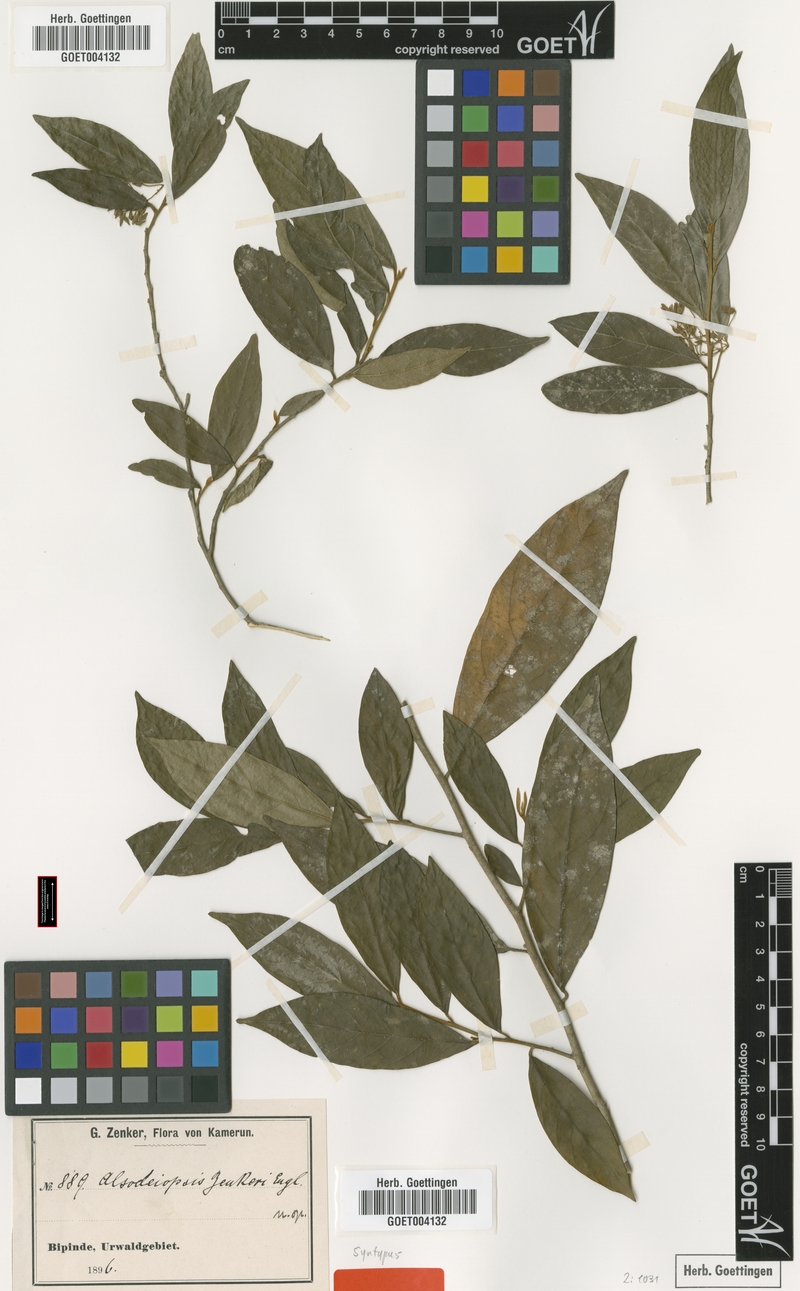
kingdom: Plantae
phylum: Tracheophyta
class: Magnoliopsida
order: Icacinales
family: Icacinaceae
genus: Alsodeiopsis
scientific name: Alsodeiopsis zenkeri
